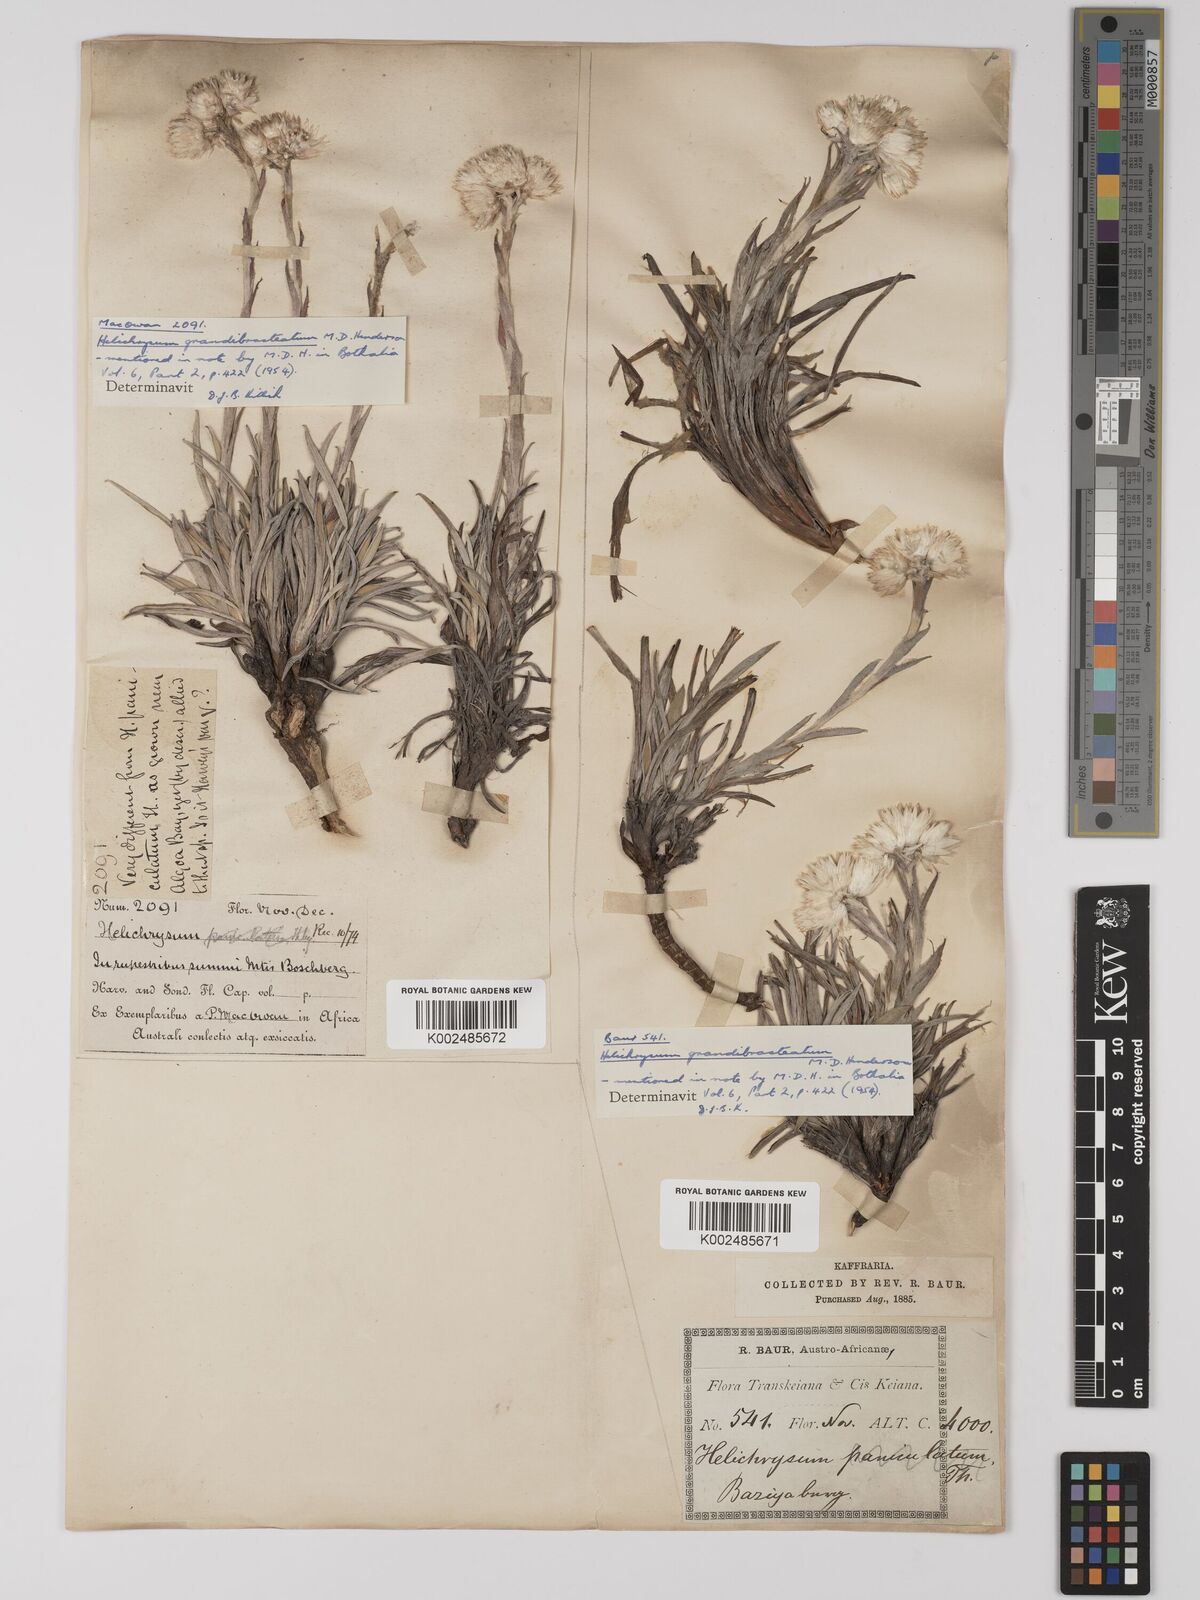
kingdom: Plantae
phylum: Tracheophyta
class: Magnoliopsida
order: Asterales
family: Asteraceae
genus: Helichrysum
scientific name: Helichrysum grandibracteatum
